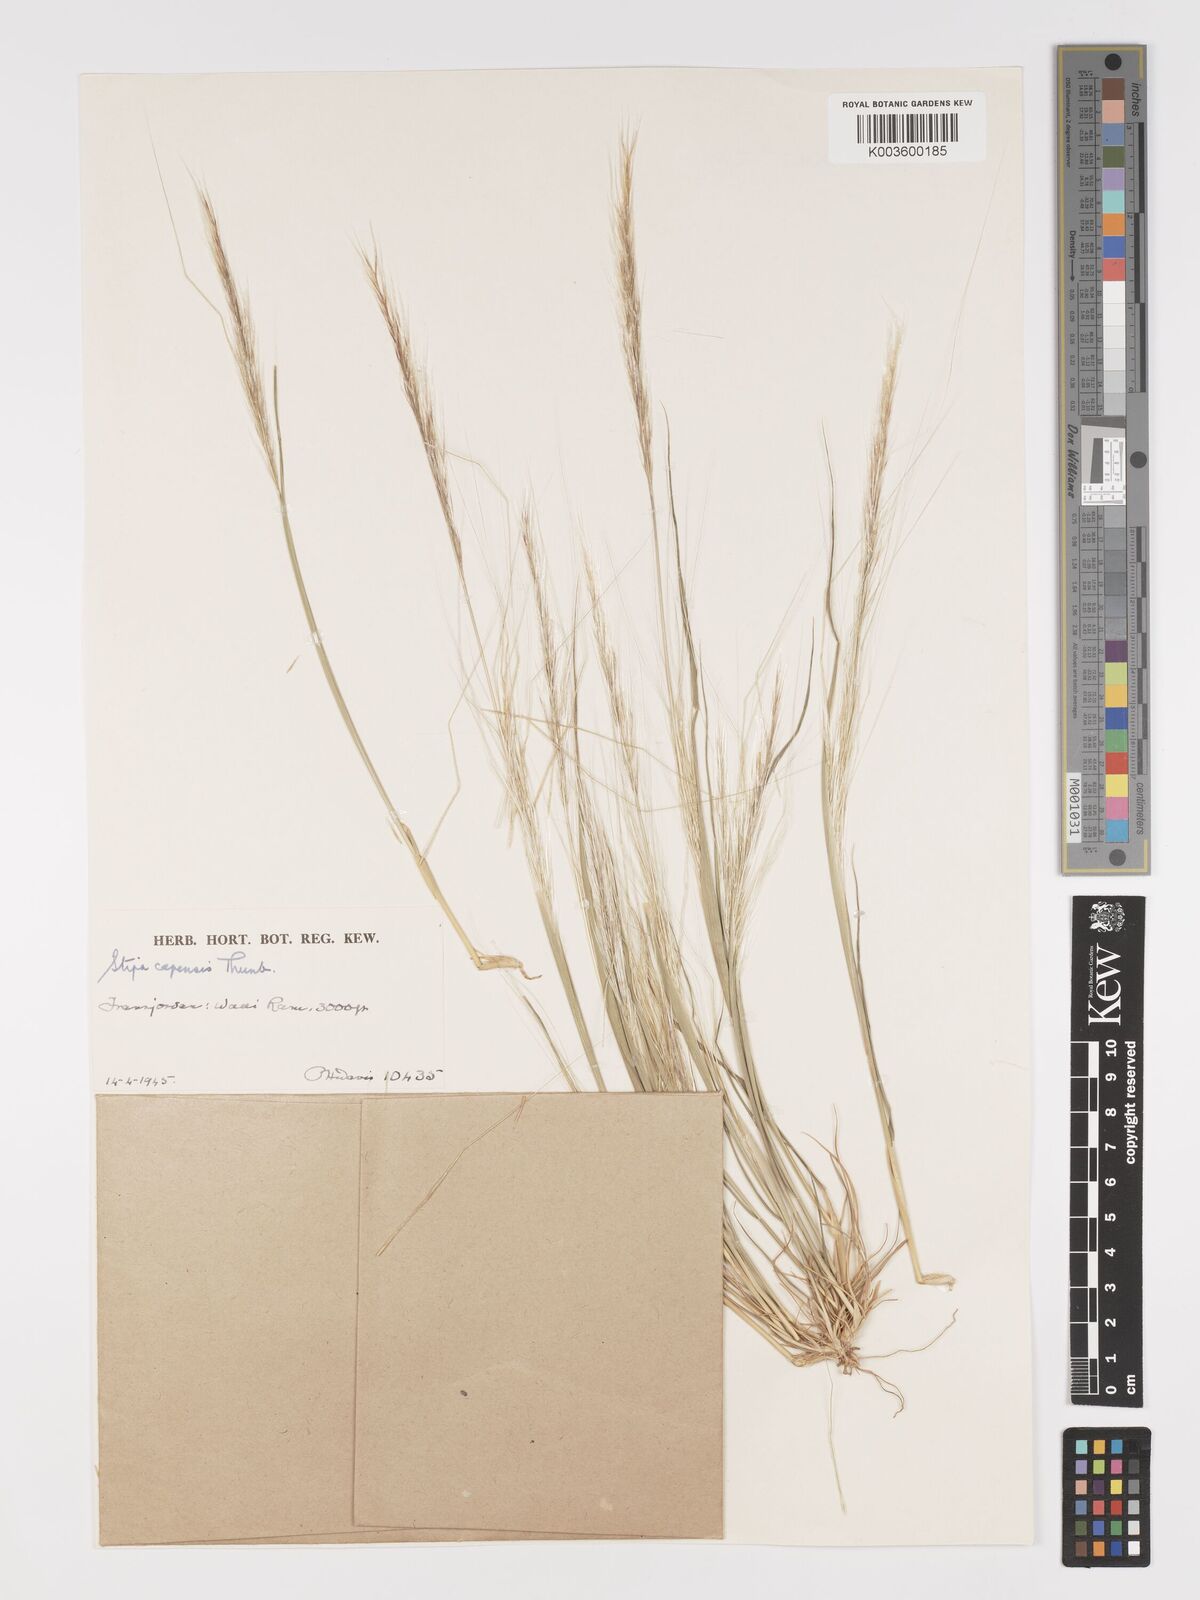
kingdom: Plantae
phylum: Tracheophyta
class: Liliopsida
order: Poales
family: Poaceae
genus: Stipellula
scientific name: Stipellula capensis
